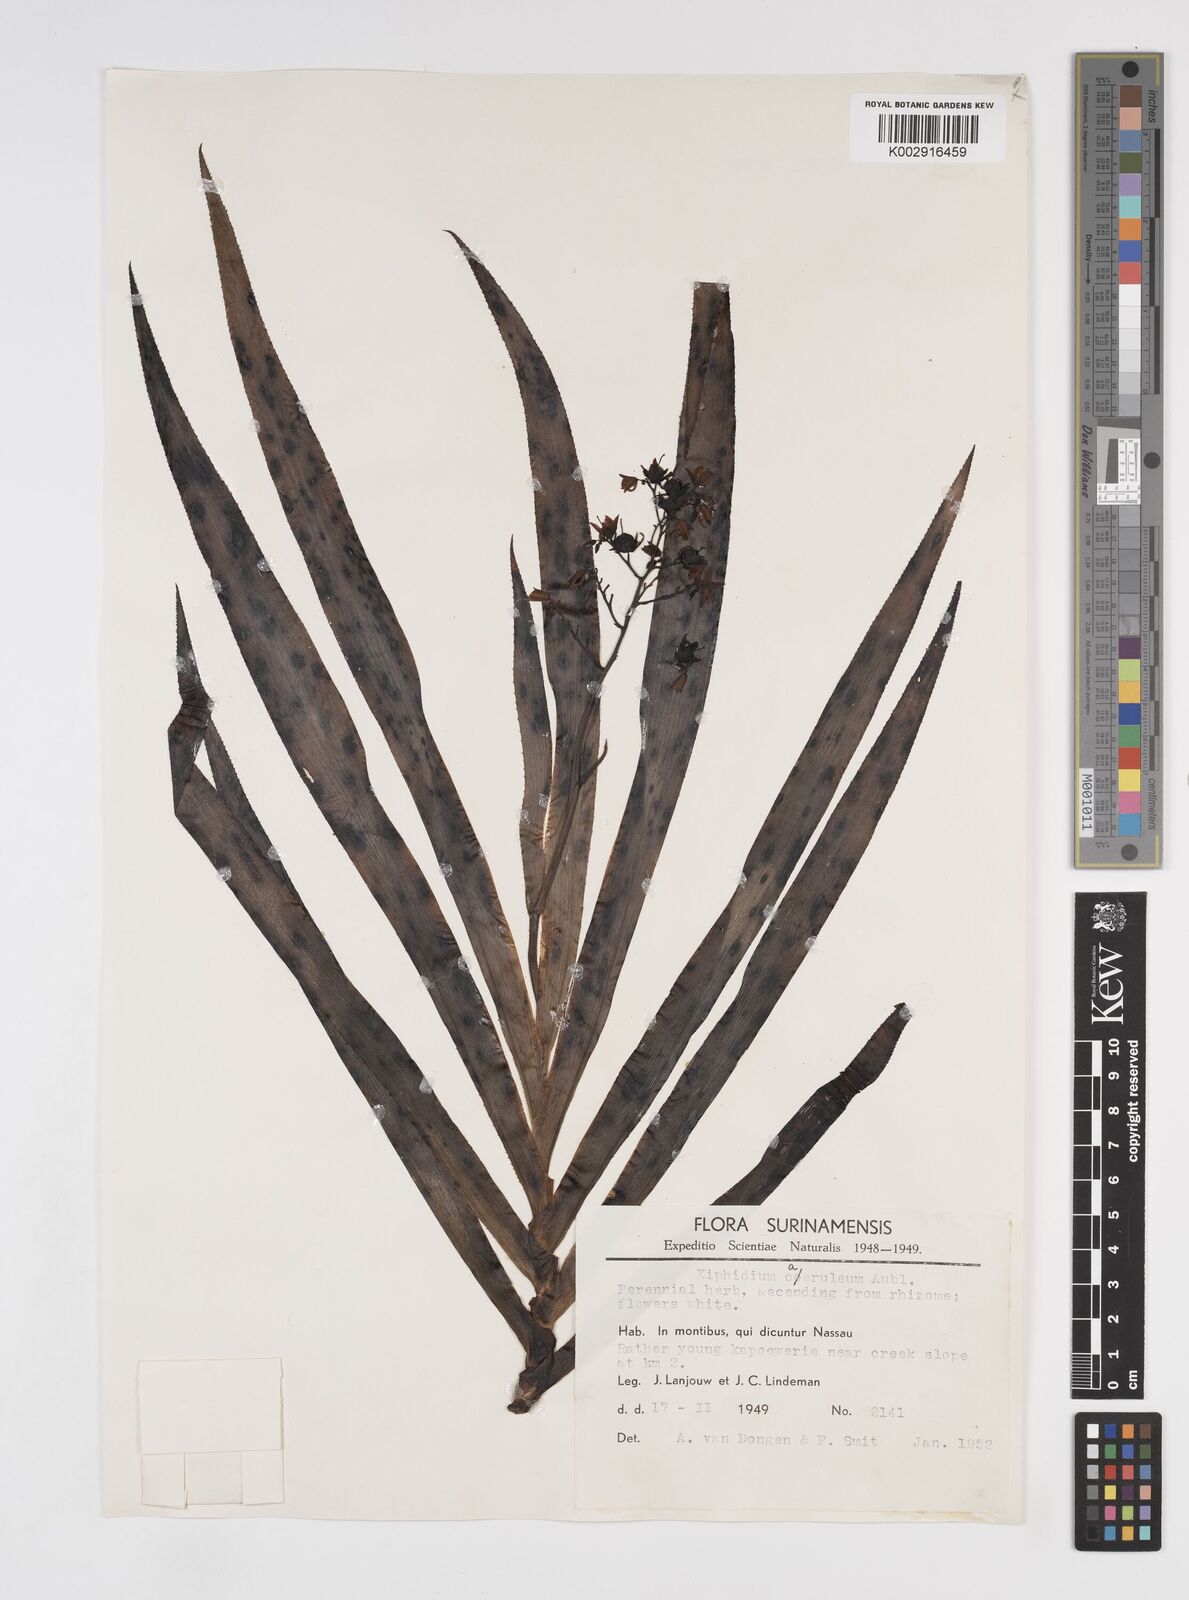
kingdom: Plantae
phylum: Tracheophyta
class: Liliopsida
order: Commelinales
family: Haemodoraceae
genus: Xiphidium
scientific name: Xiphidium caeruleum
